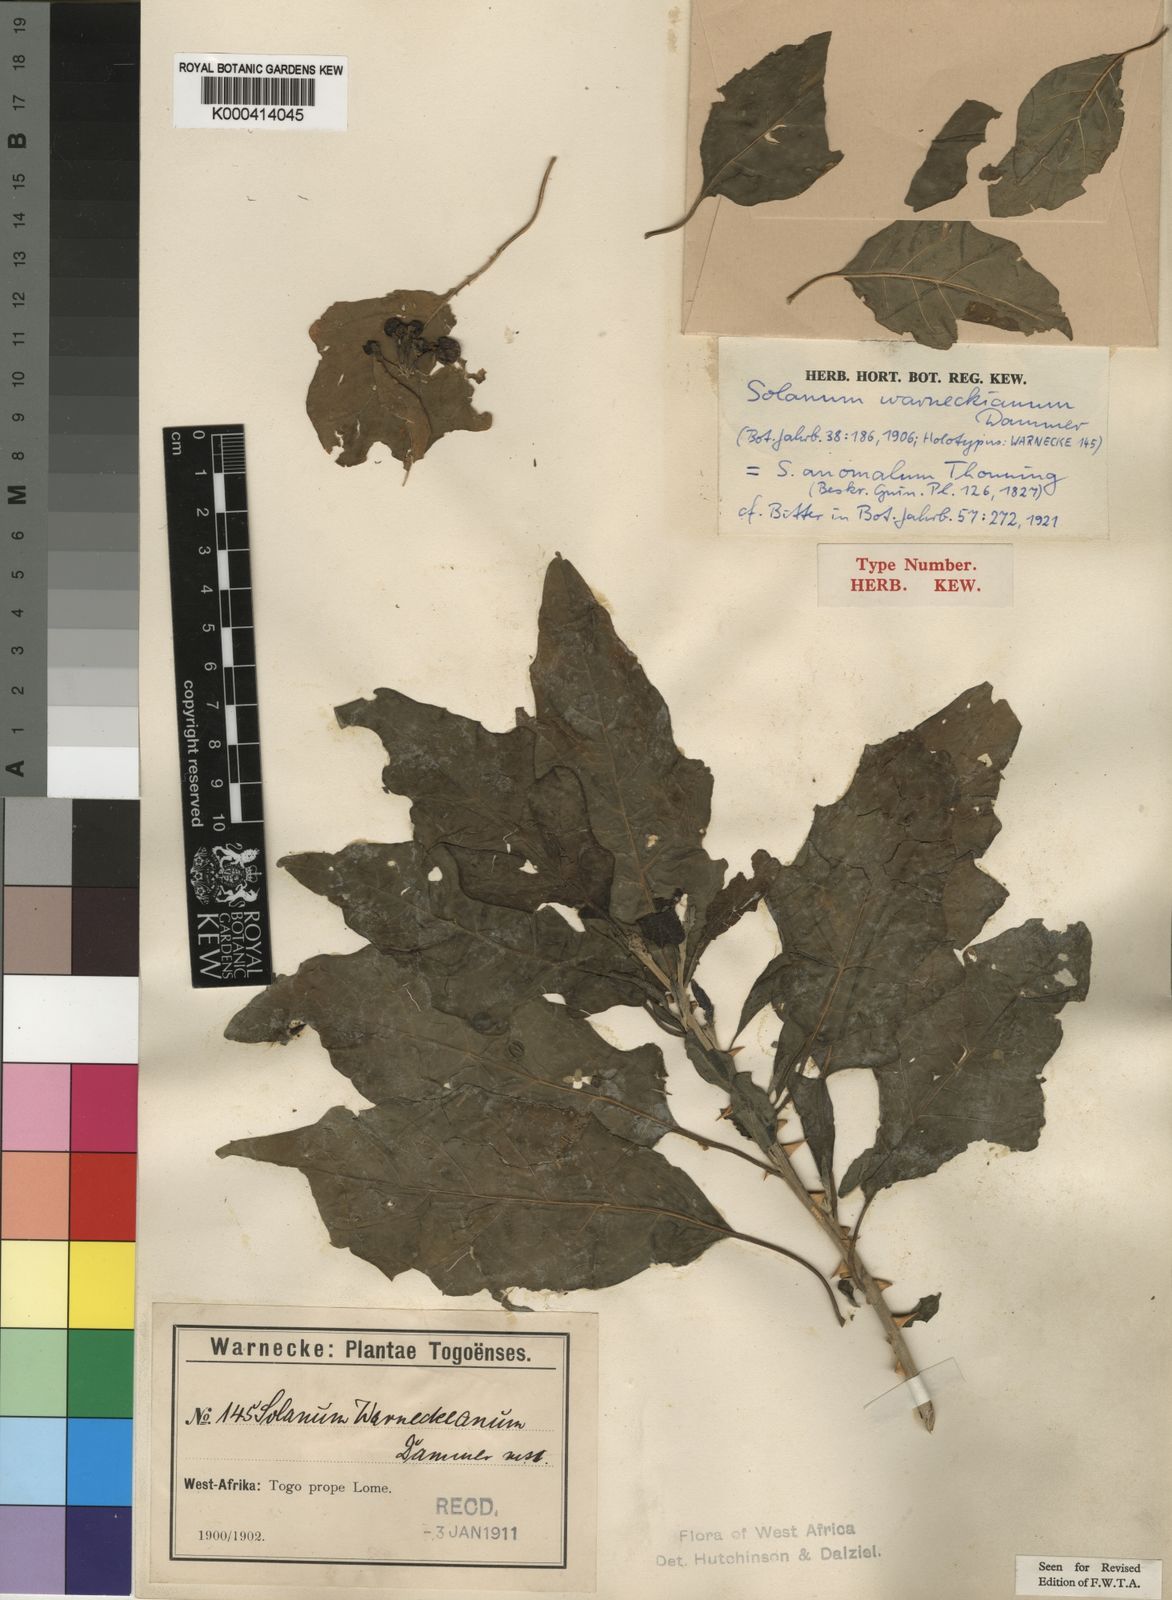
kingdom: Plantae
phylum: Tracheophyta
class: Magnoliopsida
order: Solanales
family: Solanaceae
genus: Solanum
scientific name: Solanum anomalum
